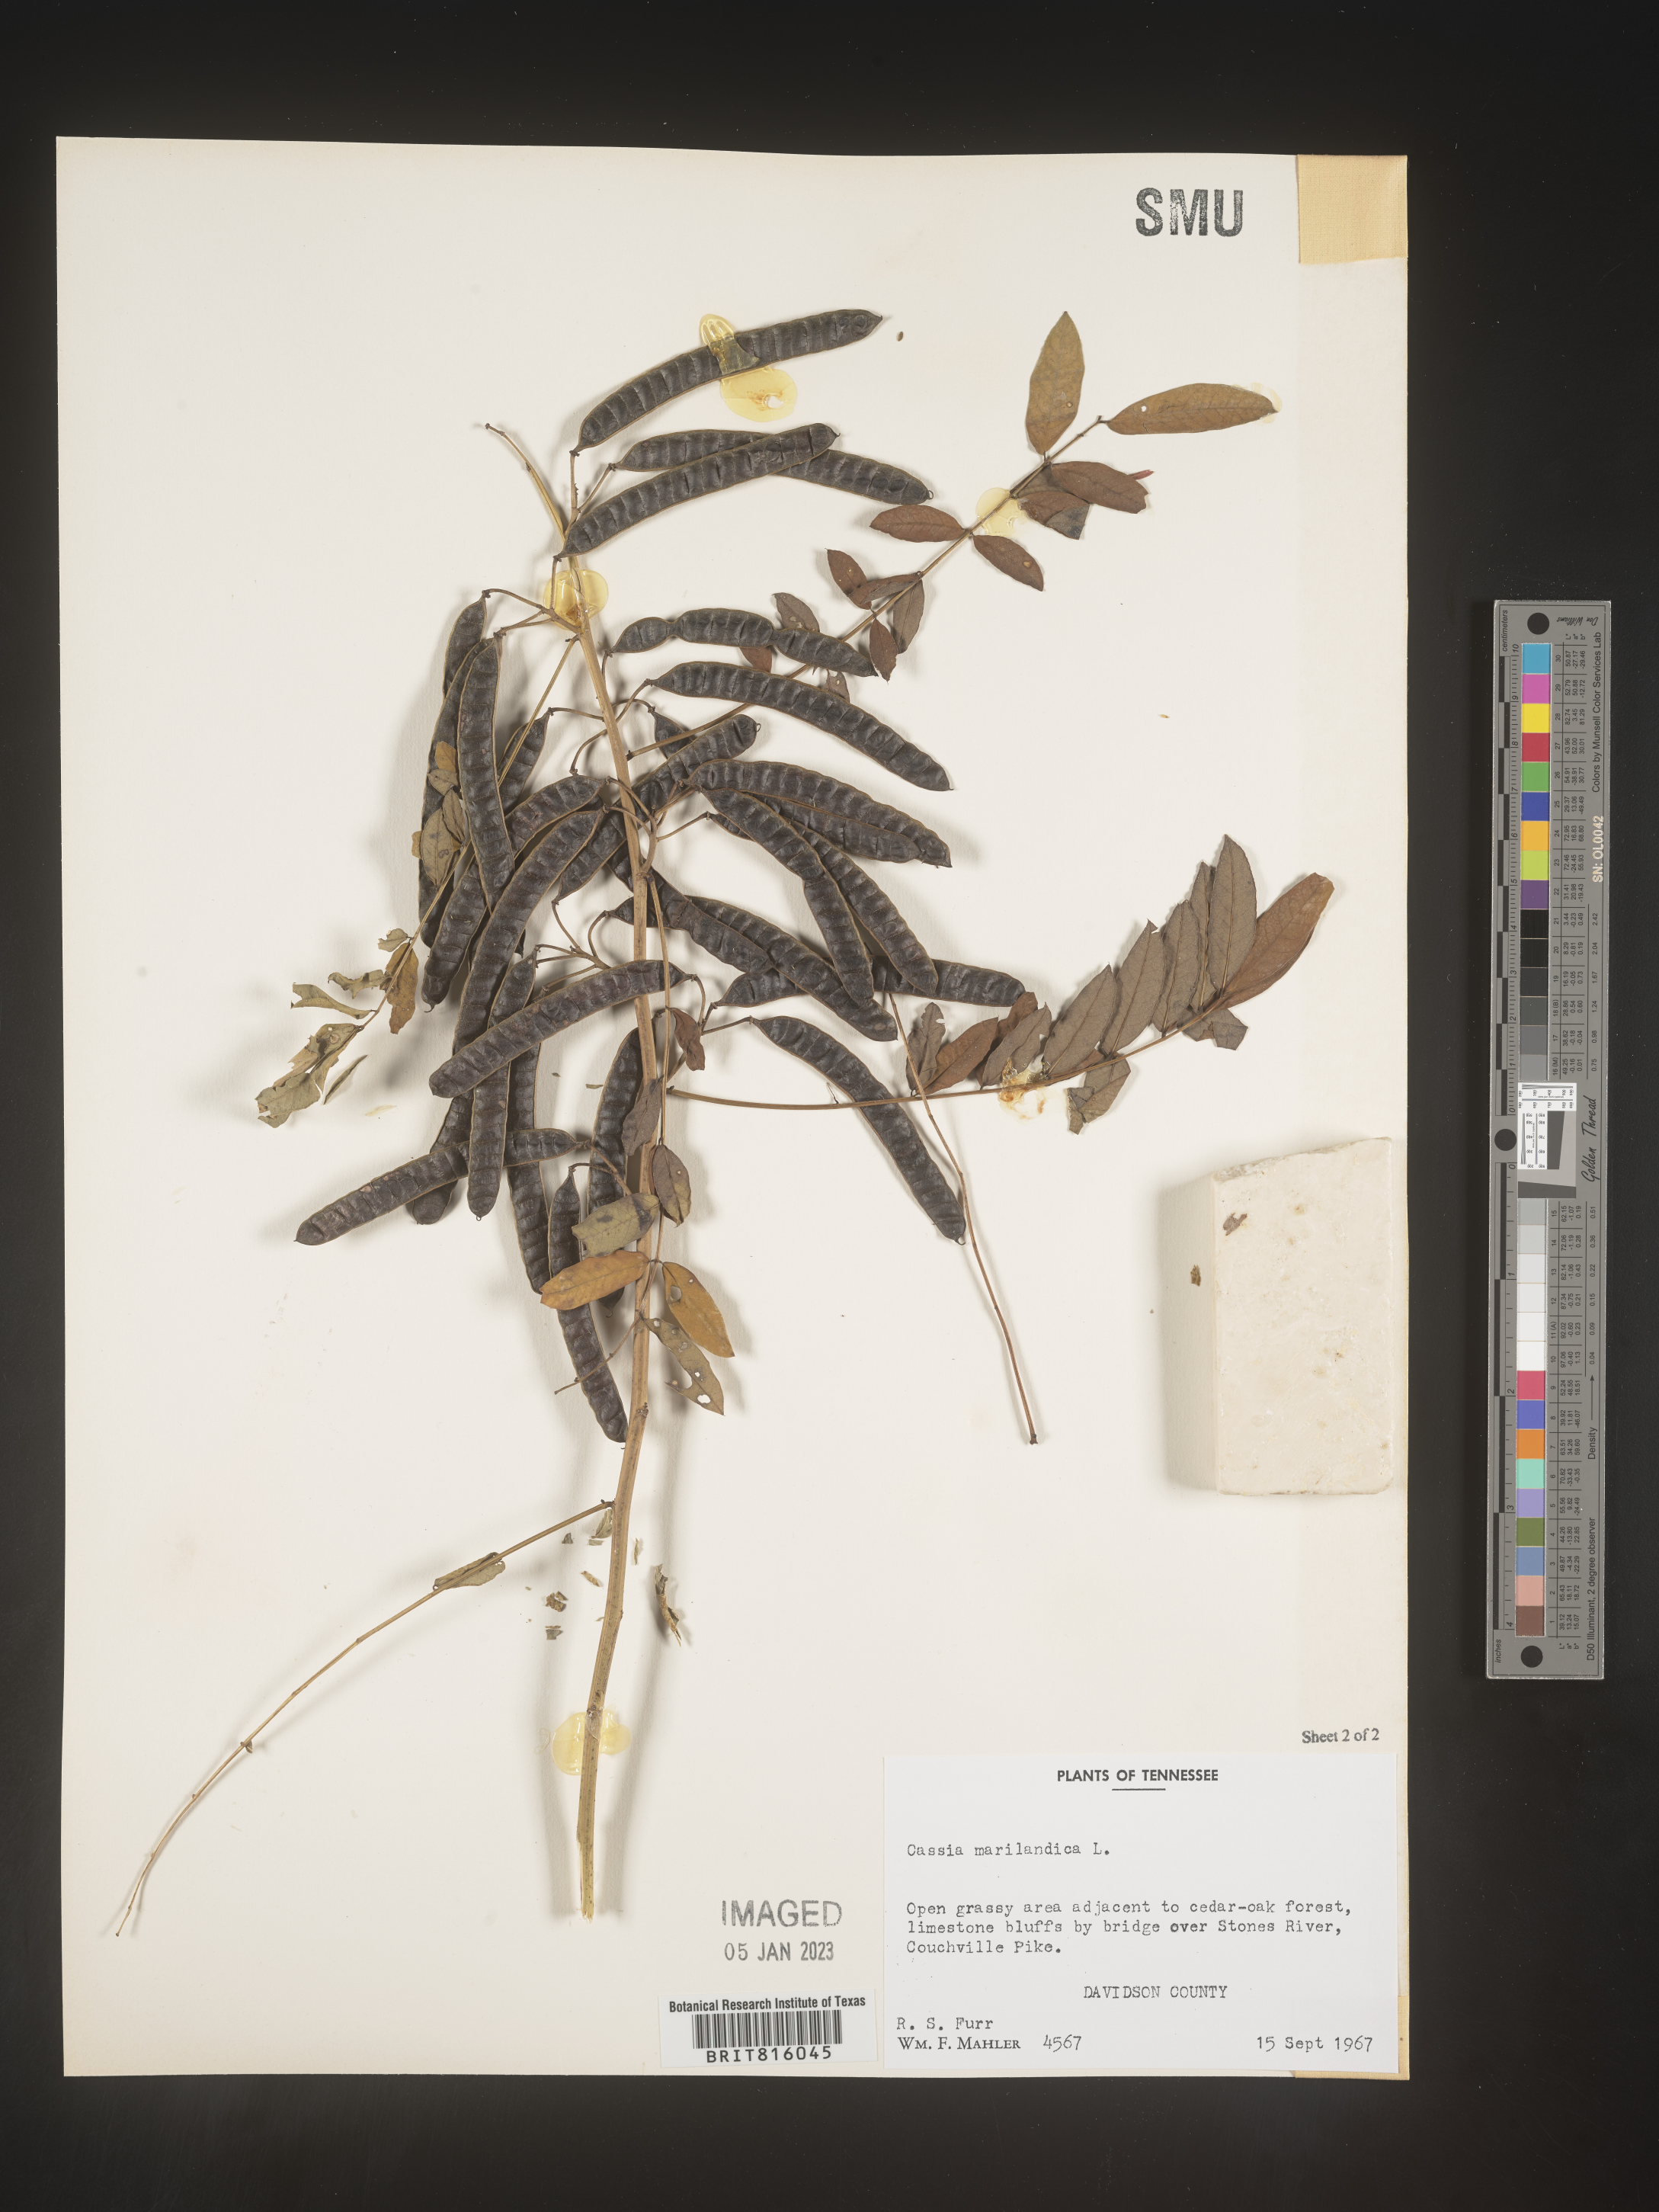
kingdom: Plantae
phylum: Tracheophyta
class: Magnoliopsida
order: Fabales
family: Fabaceae
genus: Senna
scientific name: Senna marilandica
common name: American senna
